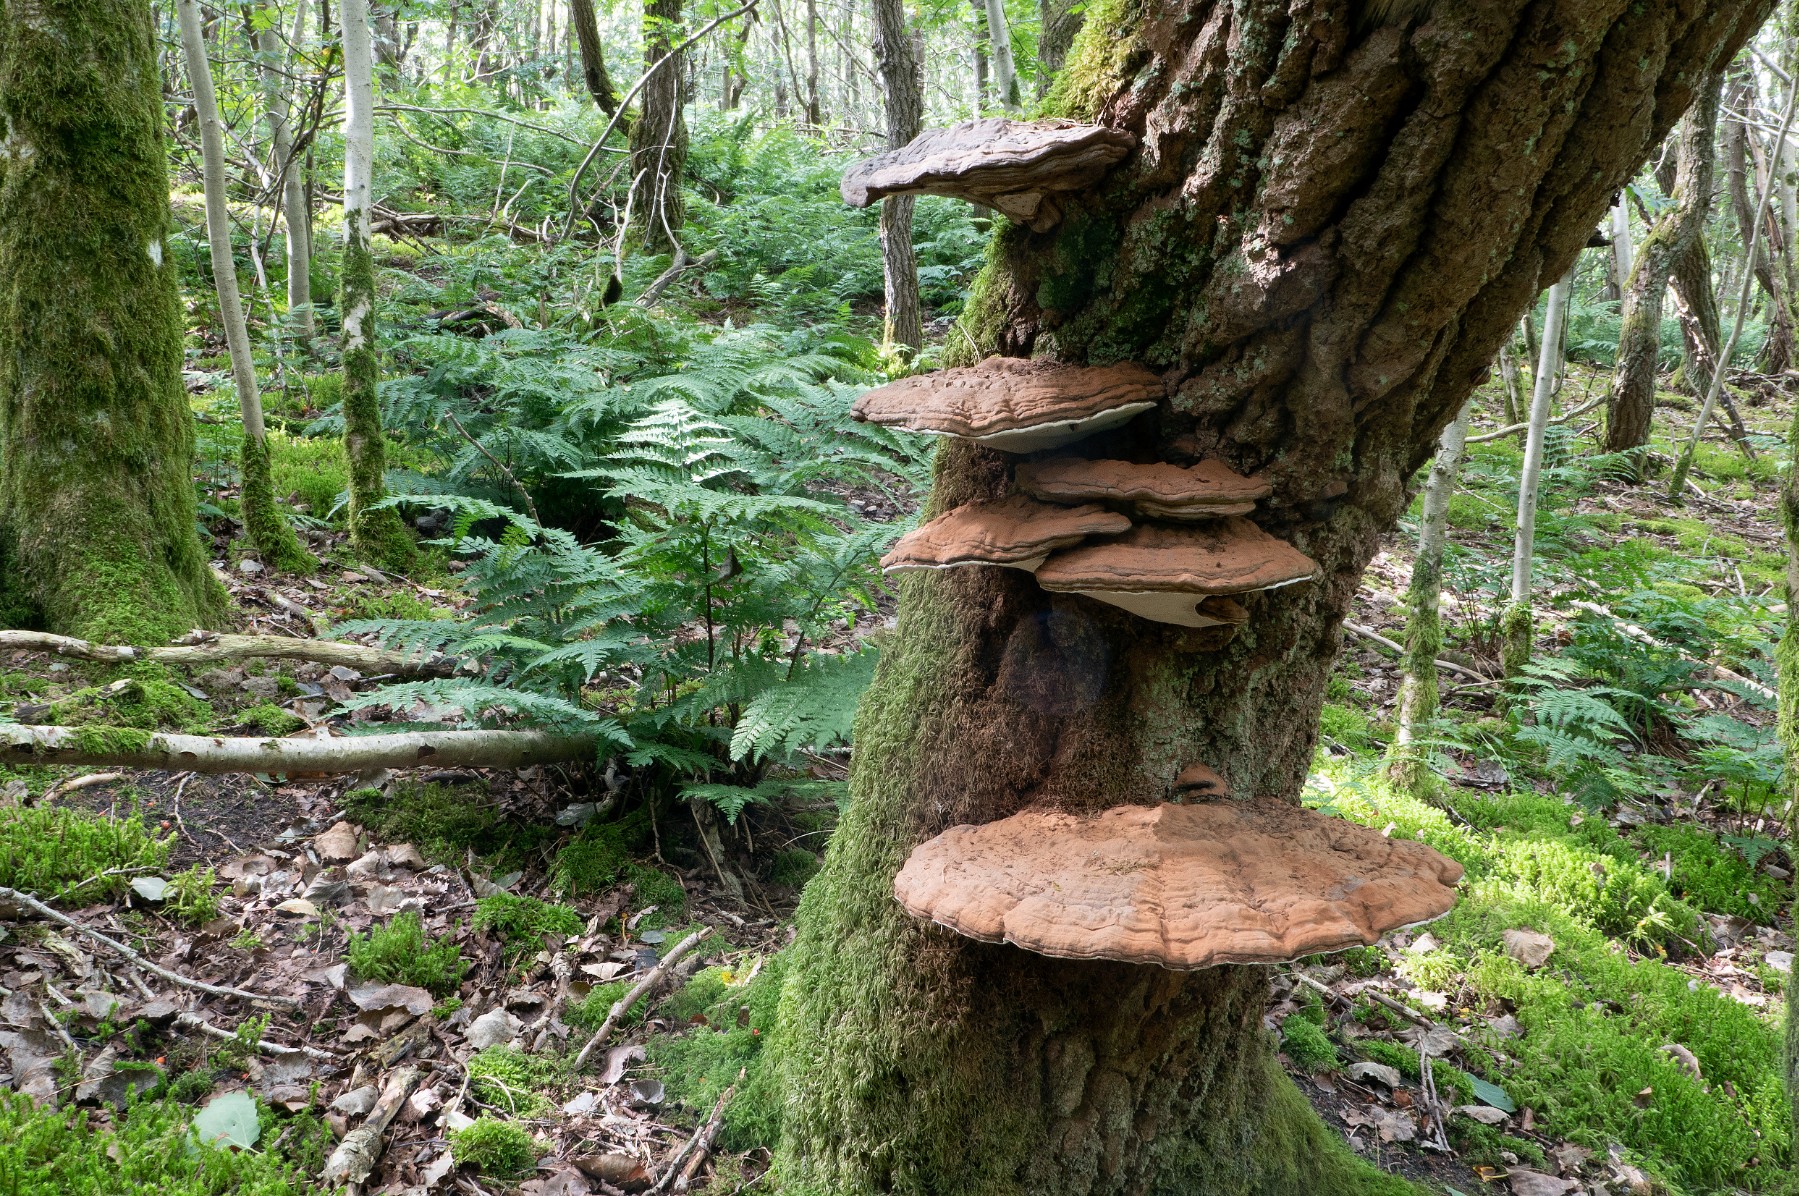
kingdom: Fungi
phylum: Basidiomycota
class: Agaricomycetes
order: Polyporales
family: Polyporaceae
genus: Ganoderma
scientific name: Ganoderma applanatum
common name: flad lakporesvamp
